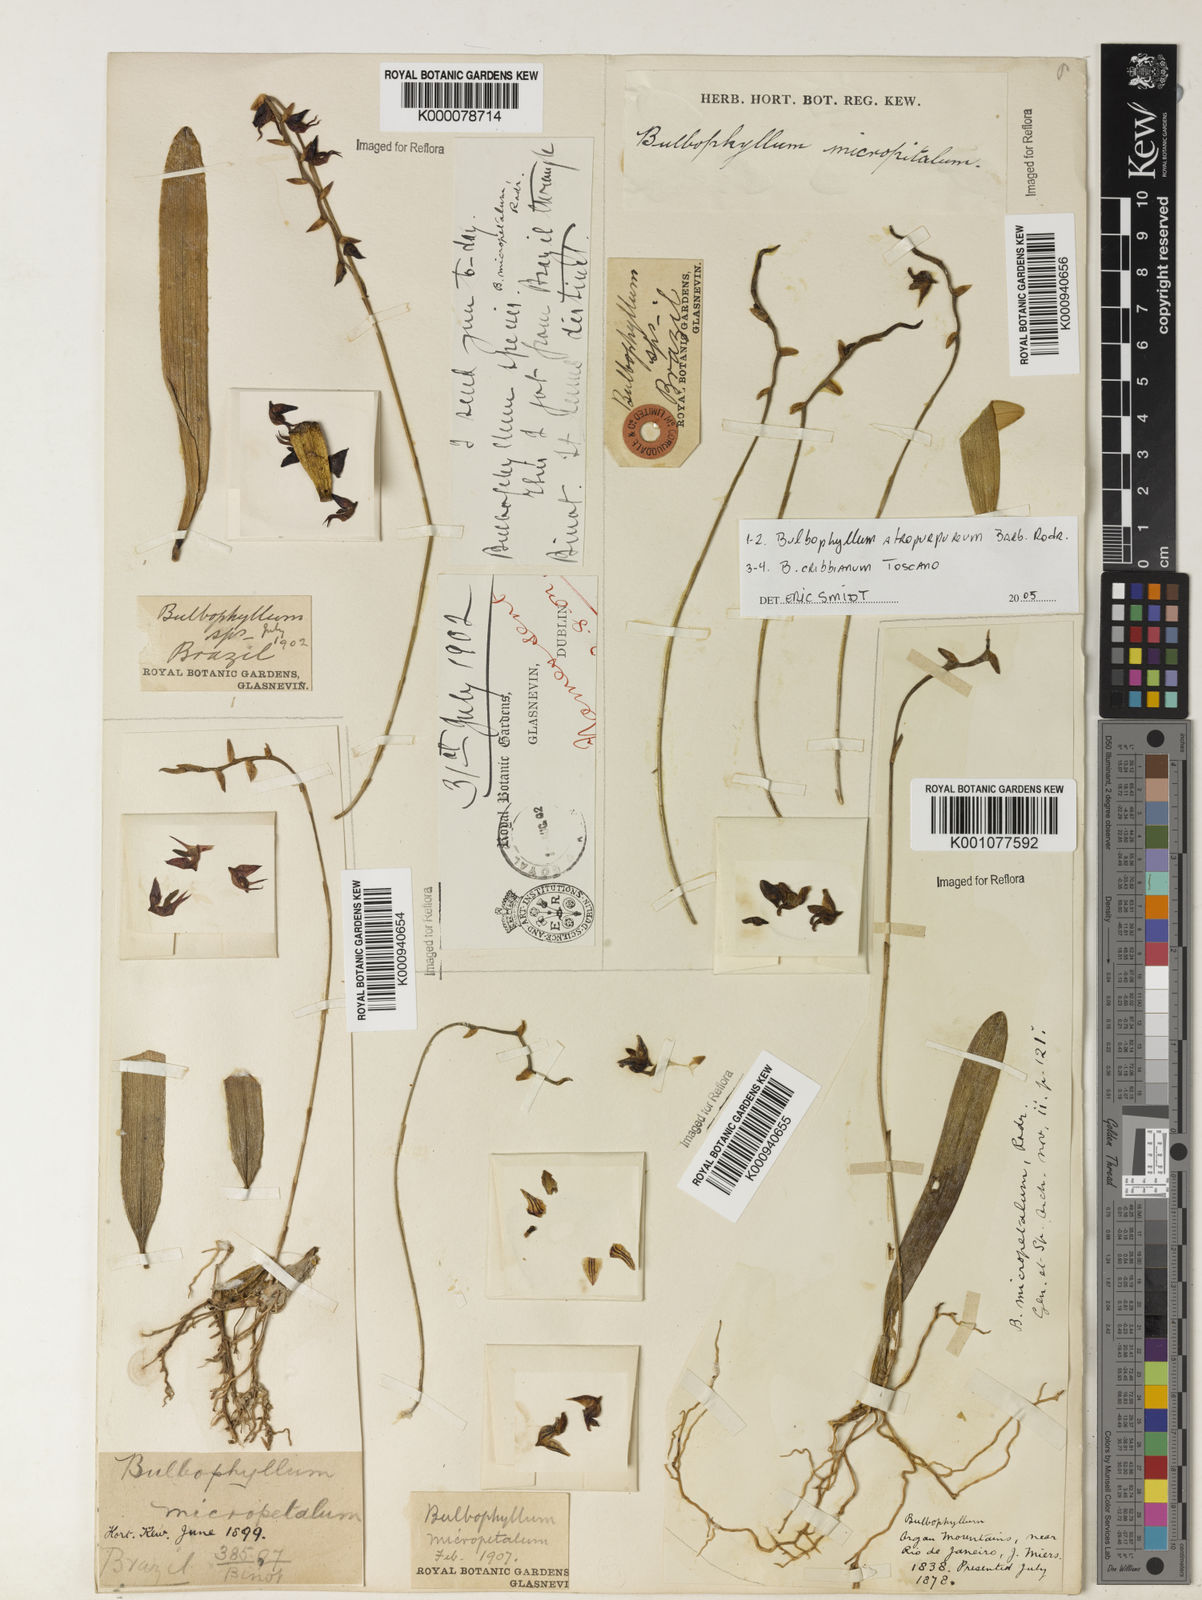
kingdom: Plantae
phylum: Tracheophyta
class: Liliopsida
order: Asparagales
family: Orchidaceae
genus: Bulbophyllum
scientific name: Bulbophyllum micropetaliforme
